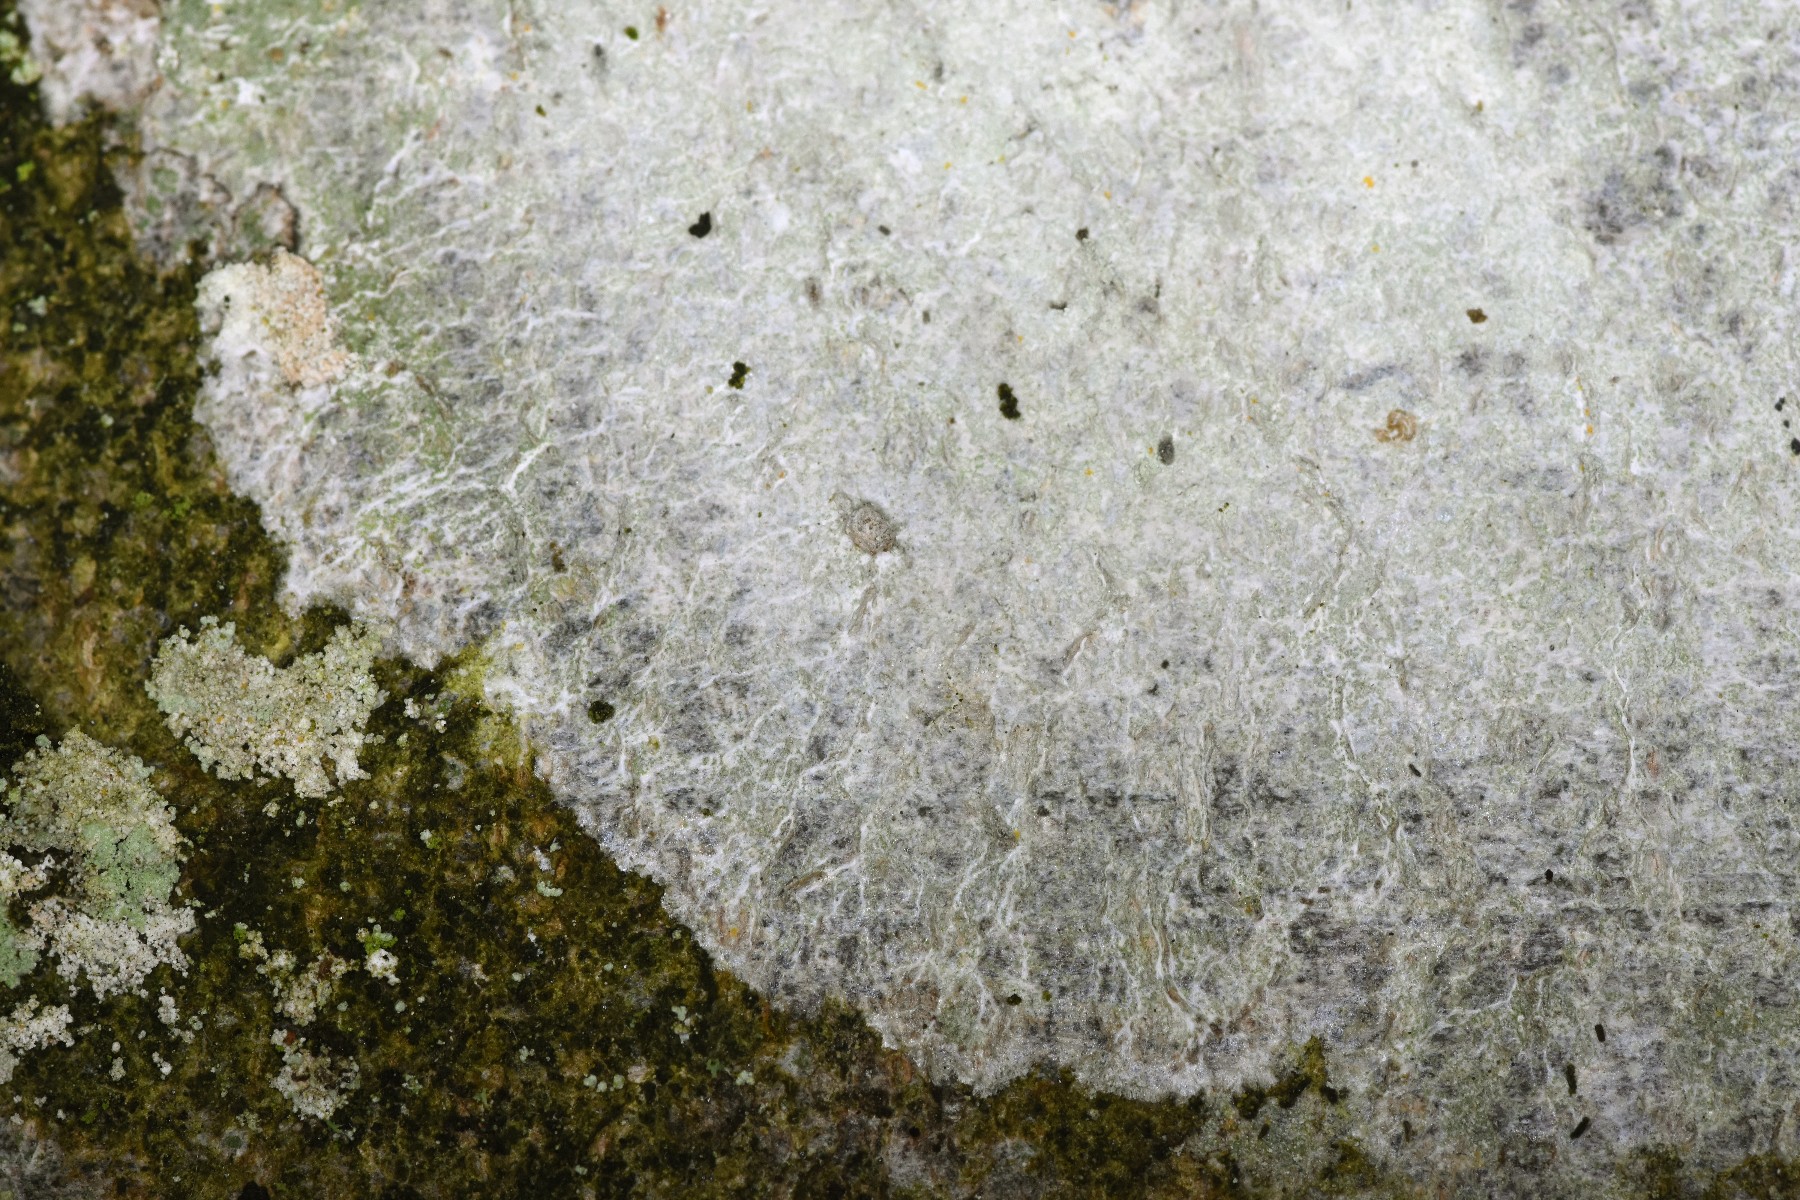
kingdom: Fungi
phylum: Ascomycota
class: Lecanoromycetes
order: Ostropales
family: Phlyctidaceae
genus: Phlyctis
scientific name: Phlyctis argena
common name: almindelig sølvlav
